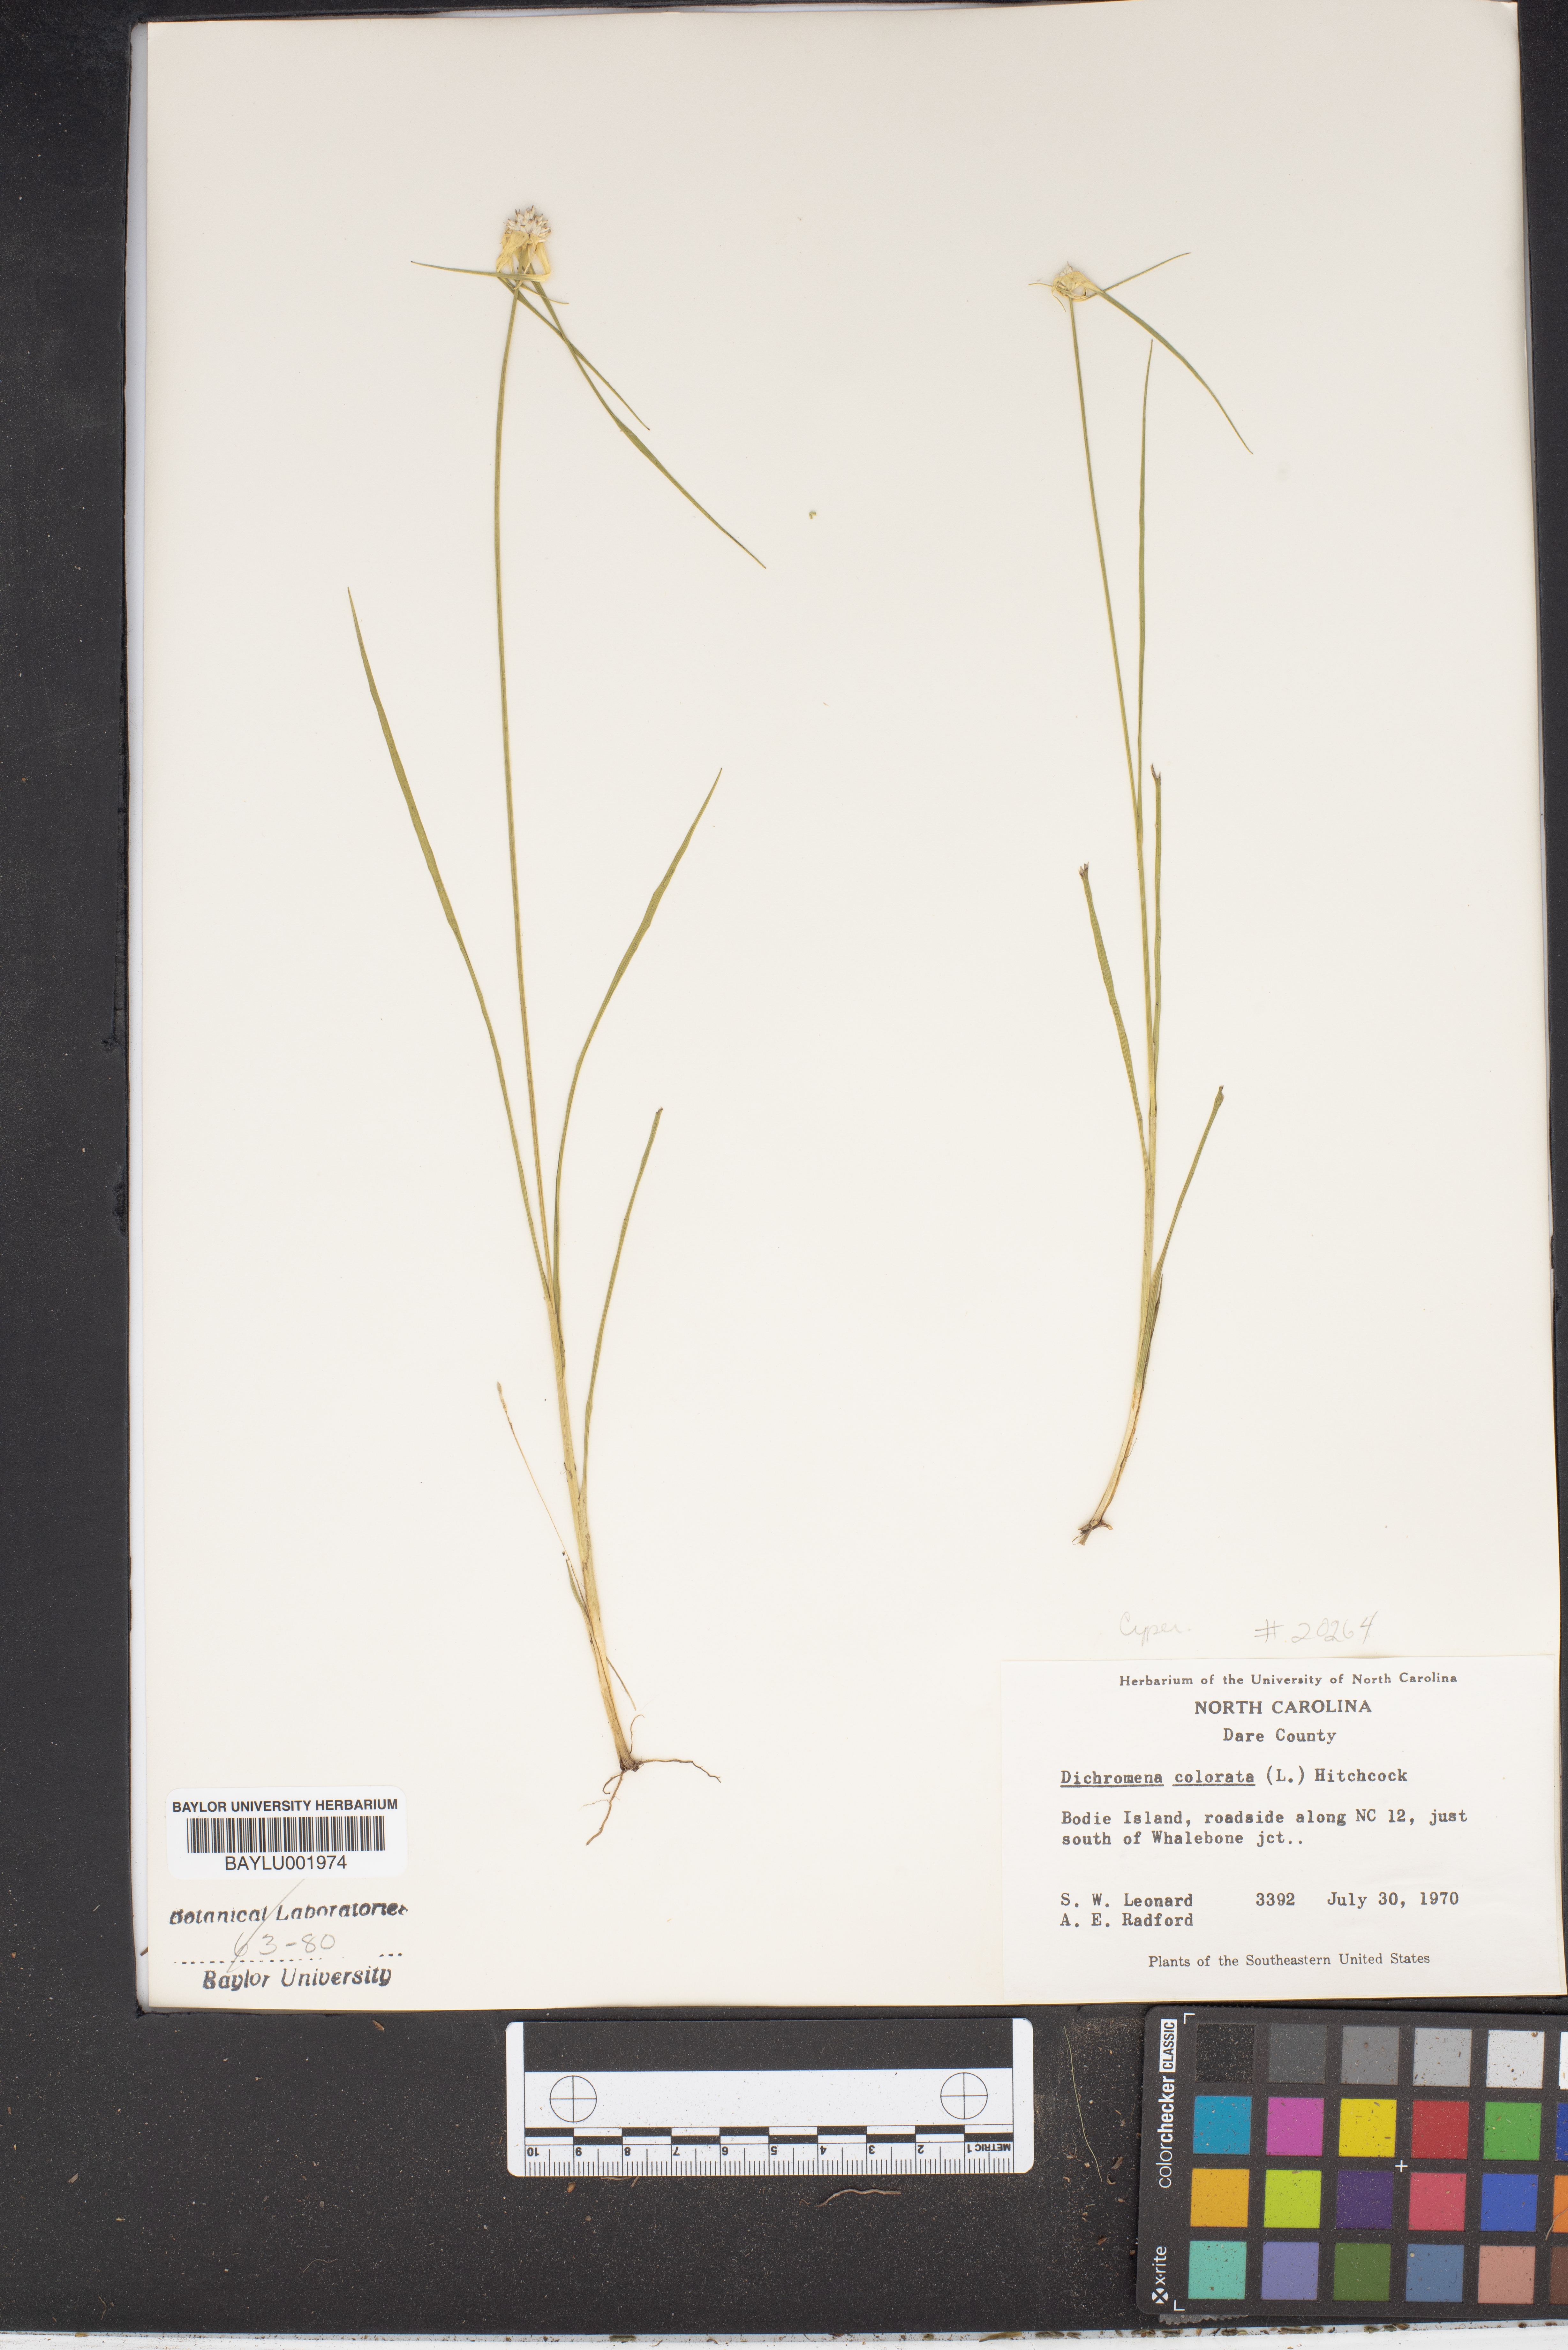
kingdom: Plantae
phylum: Tracheophyta
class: Liliopsida
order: Poales
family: Cyperaceae
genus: Rhynchospora
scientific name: Rhynchospora colorata
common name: Star sedge
